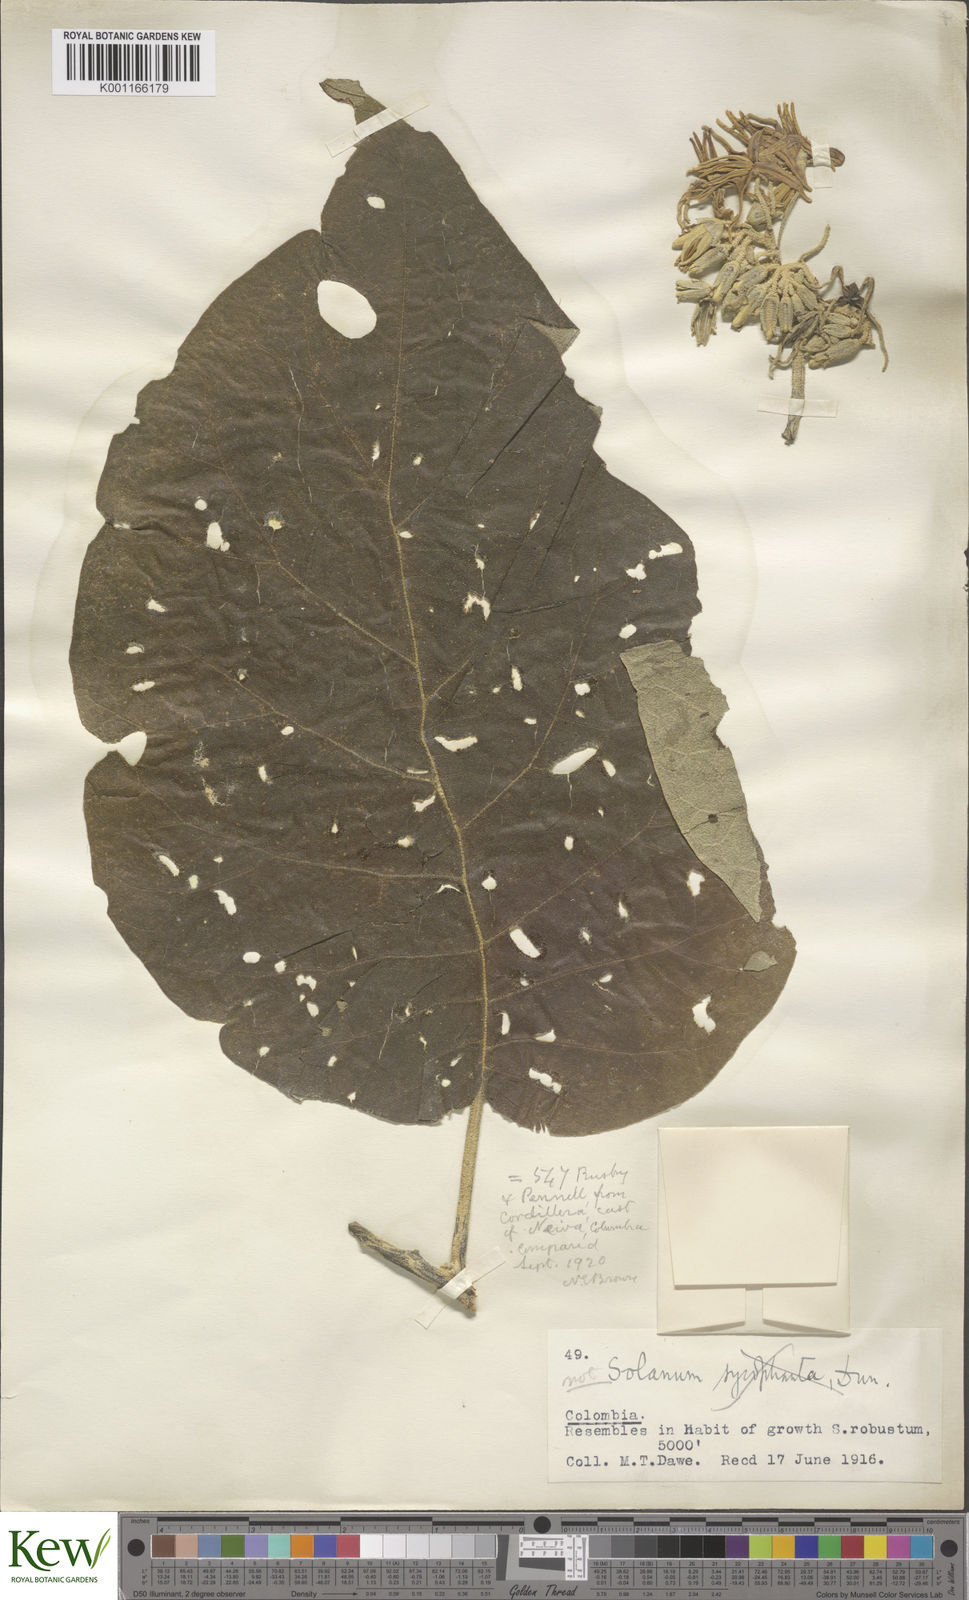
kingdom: Plantae
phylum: Tracheophyta
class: Magnoliopsida
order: Solanales
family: Solanaceae
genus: Solanum
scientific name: Solanum sycophanta
